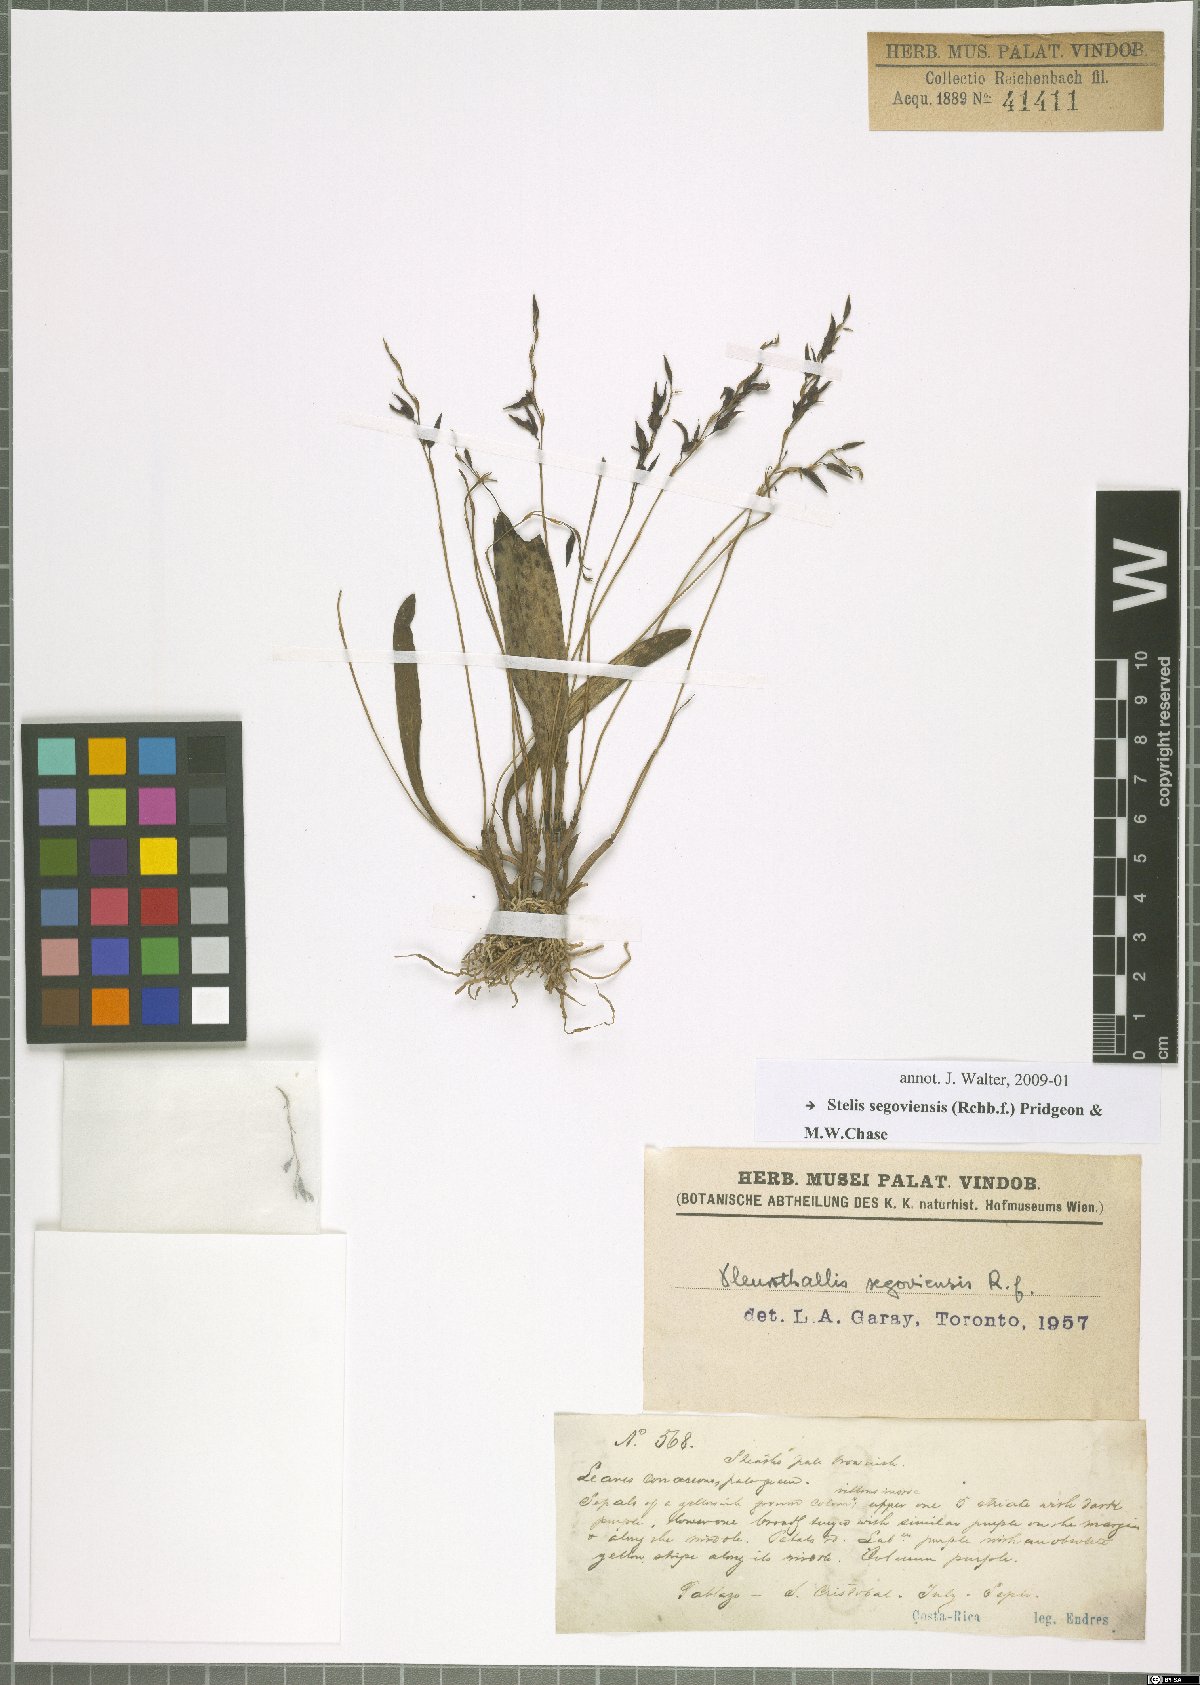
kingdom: Plantae
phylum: Tracheophyta
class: Liliopsida
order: Asparagales
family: Orchidaceae
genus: Stelis
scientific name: Stelis segoviensis
